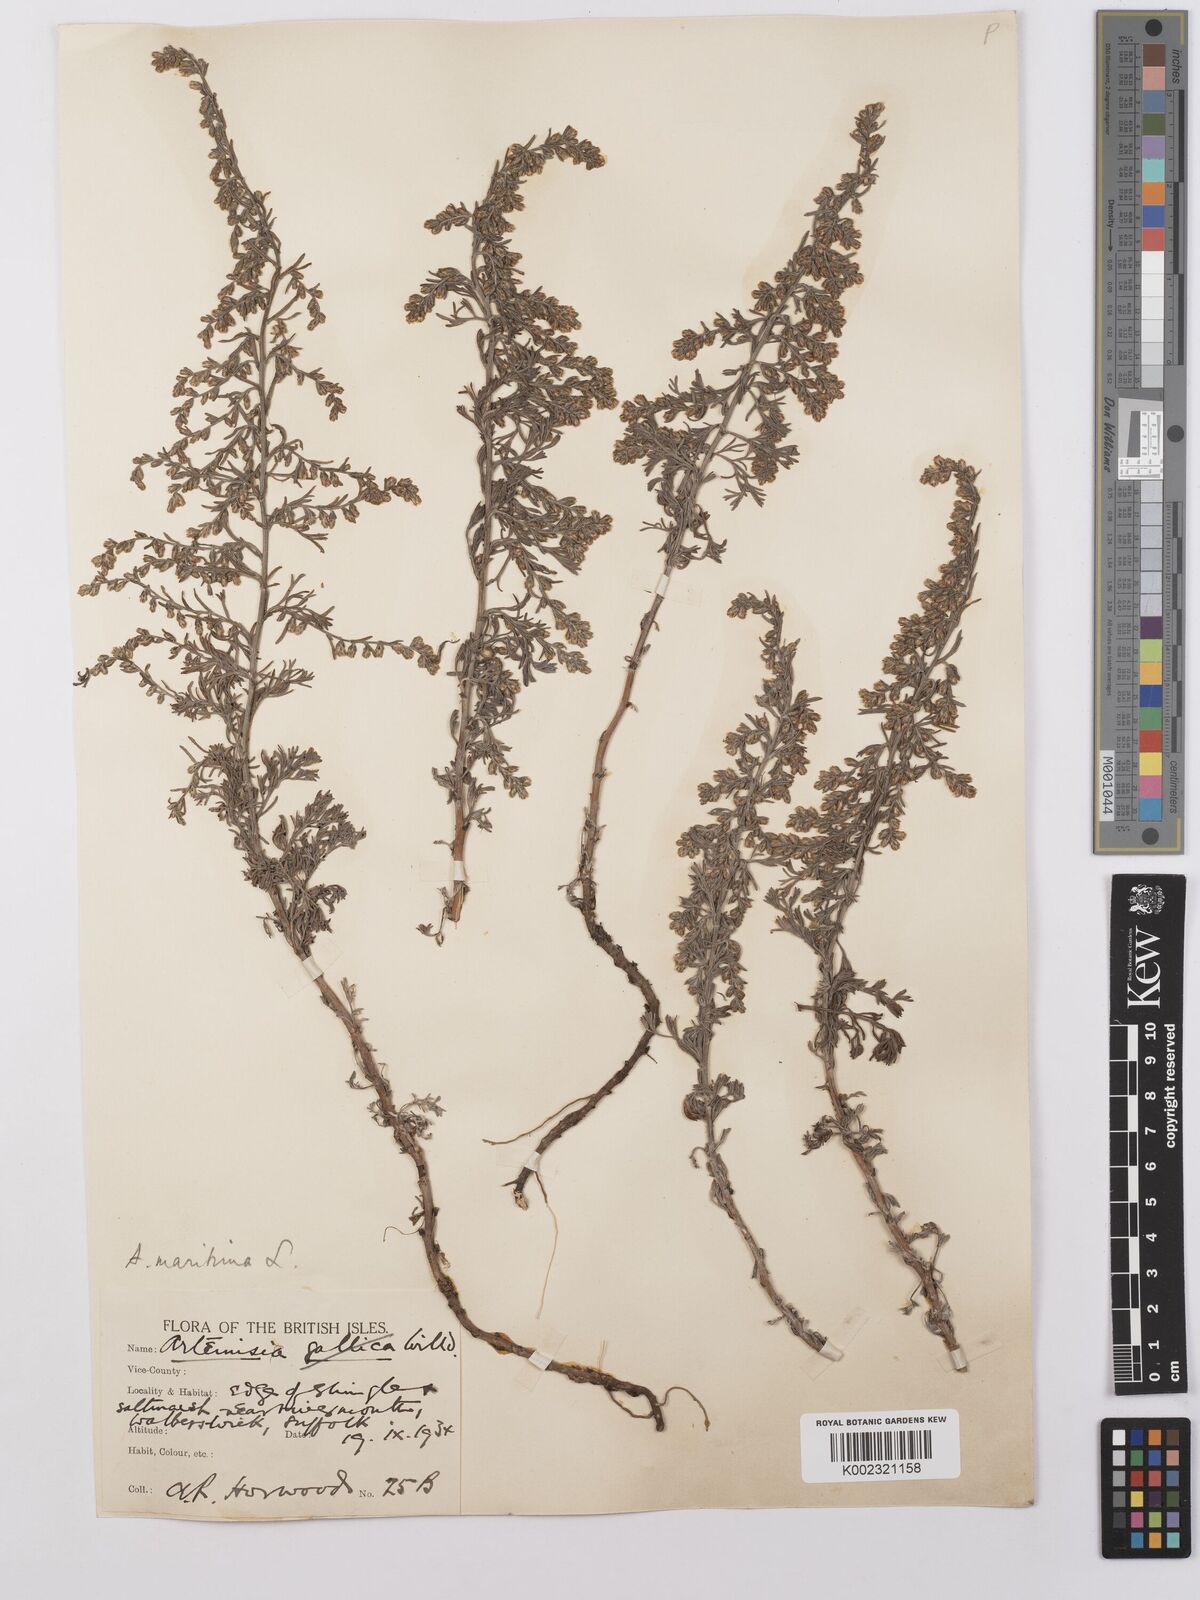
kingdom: Plantae
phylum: Tracheophyta
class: Magnoliopsida
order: Asterales
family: Asteraceae
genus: Artemisia
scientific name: Artemisia maritima
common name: Wormseed
